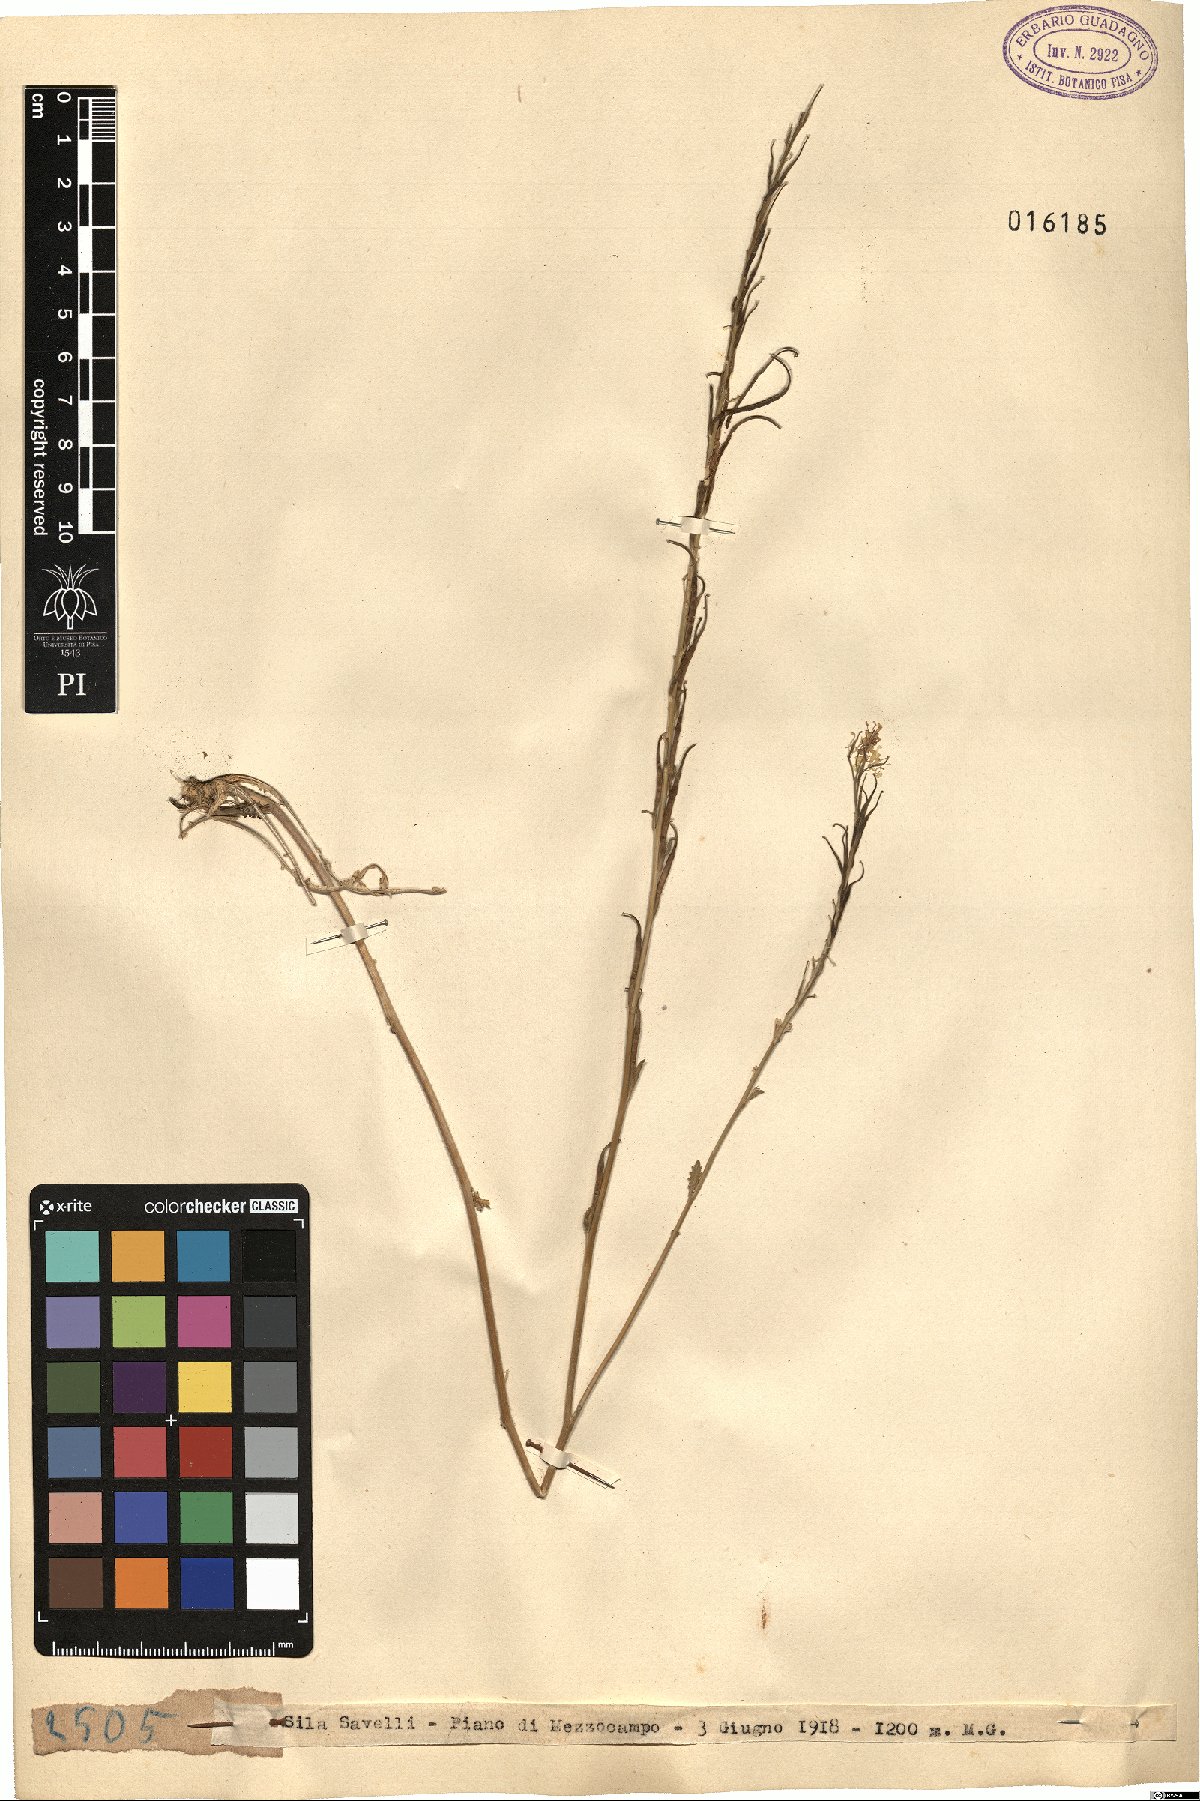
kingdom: Plantae
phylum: Tracheophyta
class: Magnoliopsida
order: Brassicales
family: Brassicaceae
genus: Brassica
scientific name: Brassica
